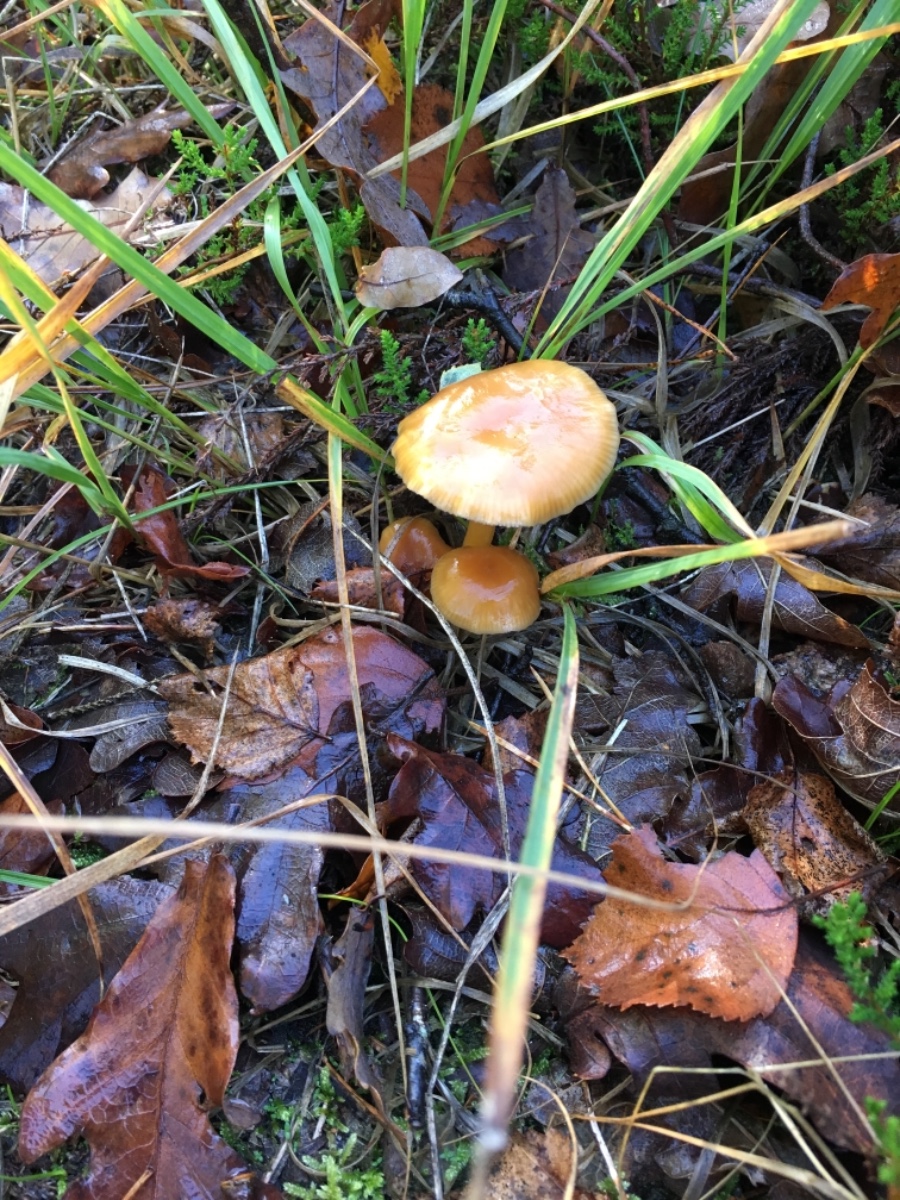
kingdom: Fungi
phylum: Basidiomycota
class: Agaricomycetes
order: Agaricales
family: Hygrophoraceae
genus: Gliophorus
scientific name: Gliophorus laetus
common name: brusk-vokshat
